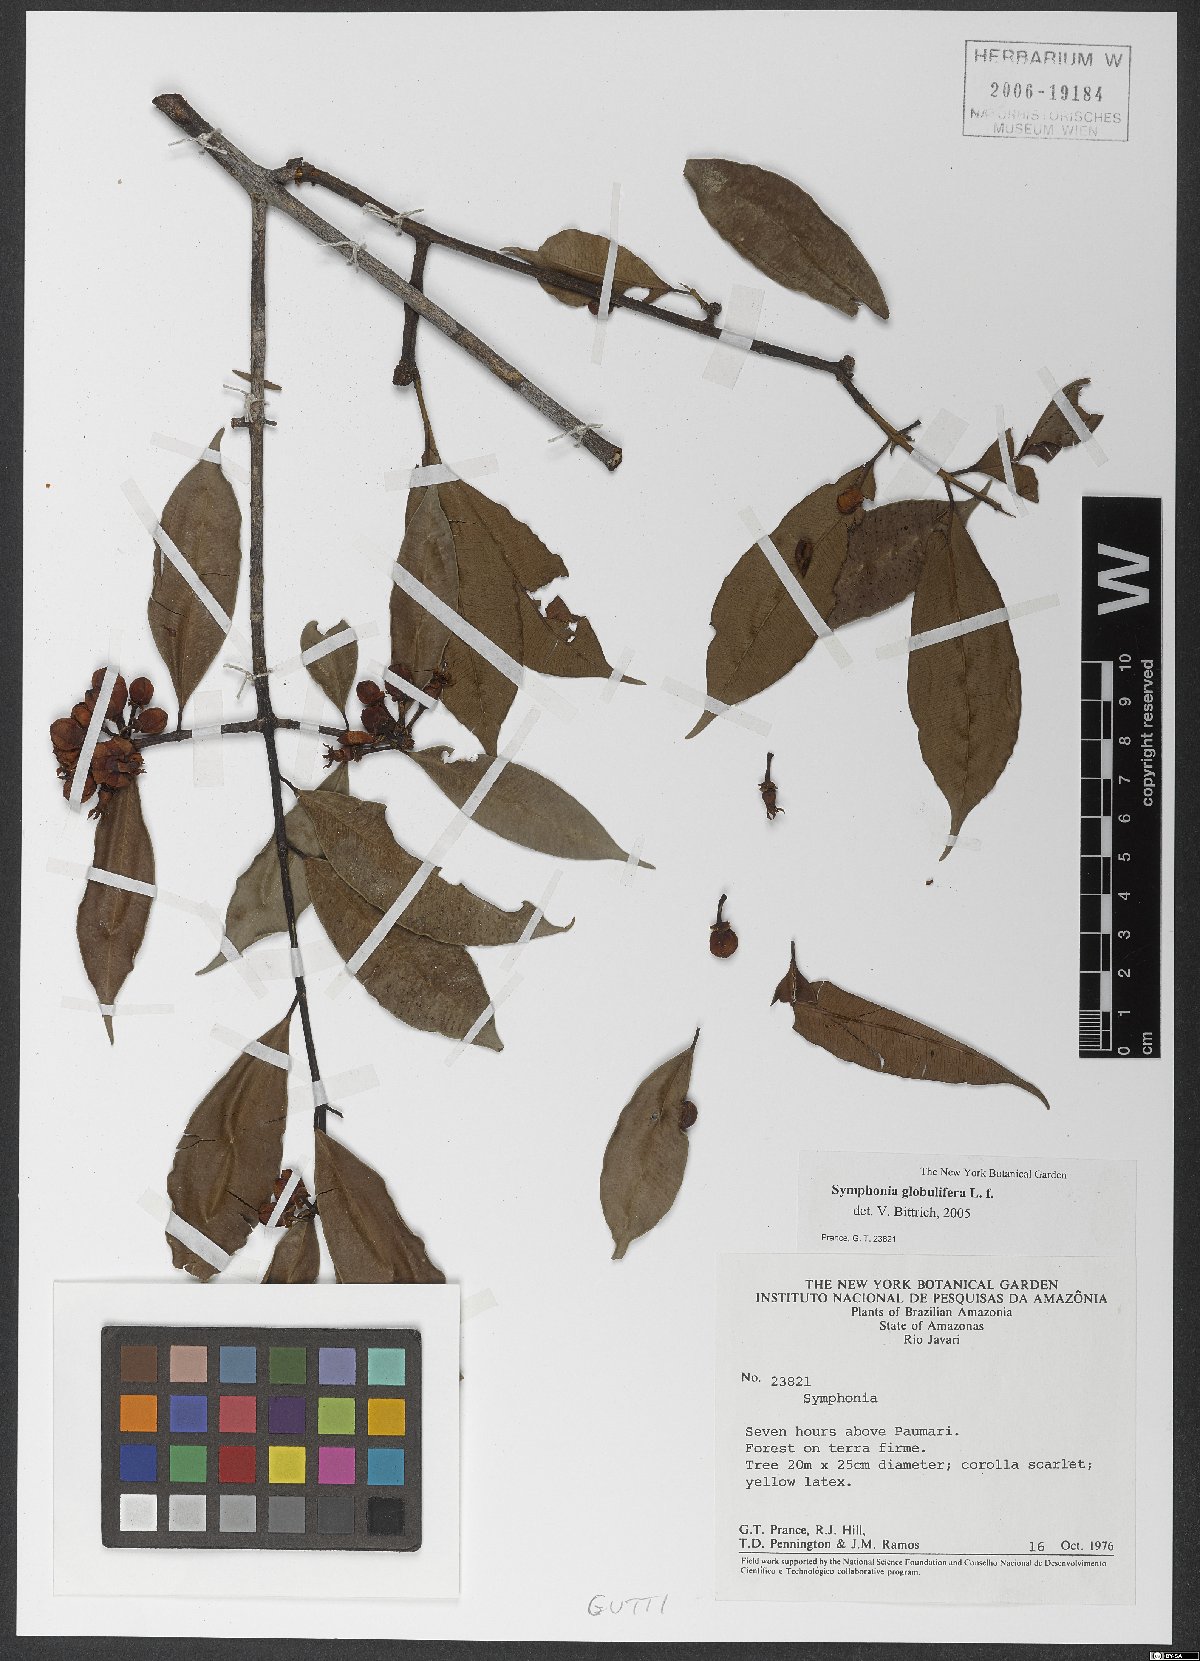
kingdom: Plantae
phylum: Tracheophyta
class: Magnoliopsida
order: Malpighiales
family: Clusiaceae
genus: Symphonia
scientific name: Symphonia globulifera
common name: Boarwood
